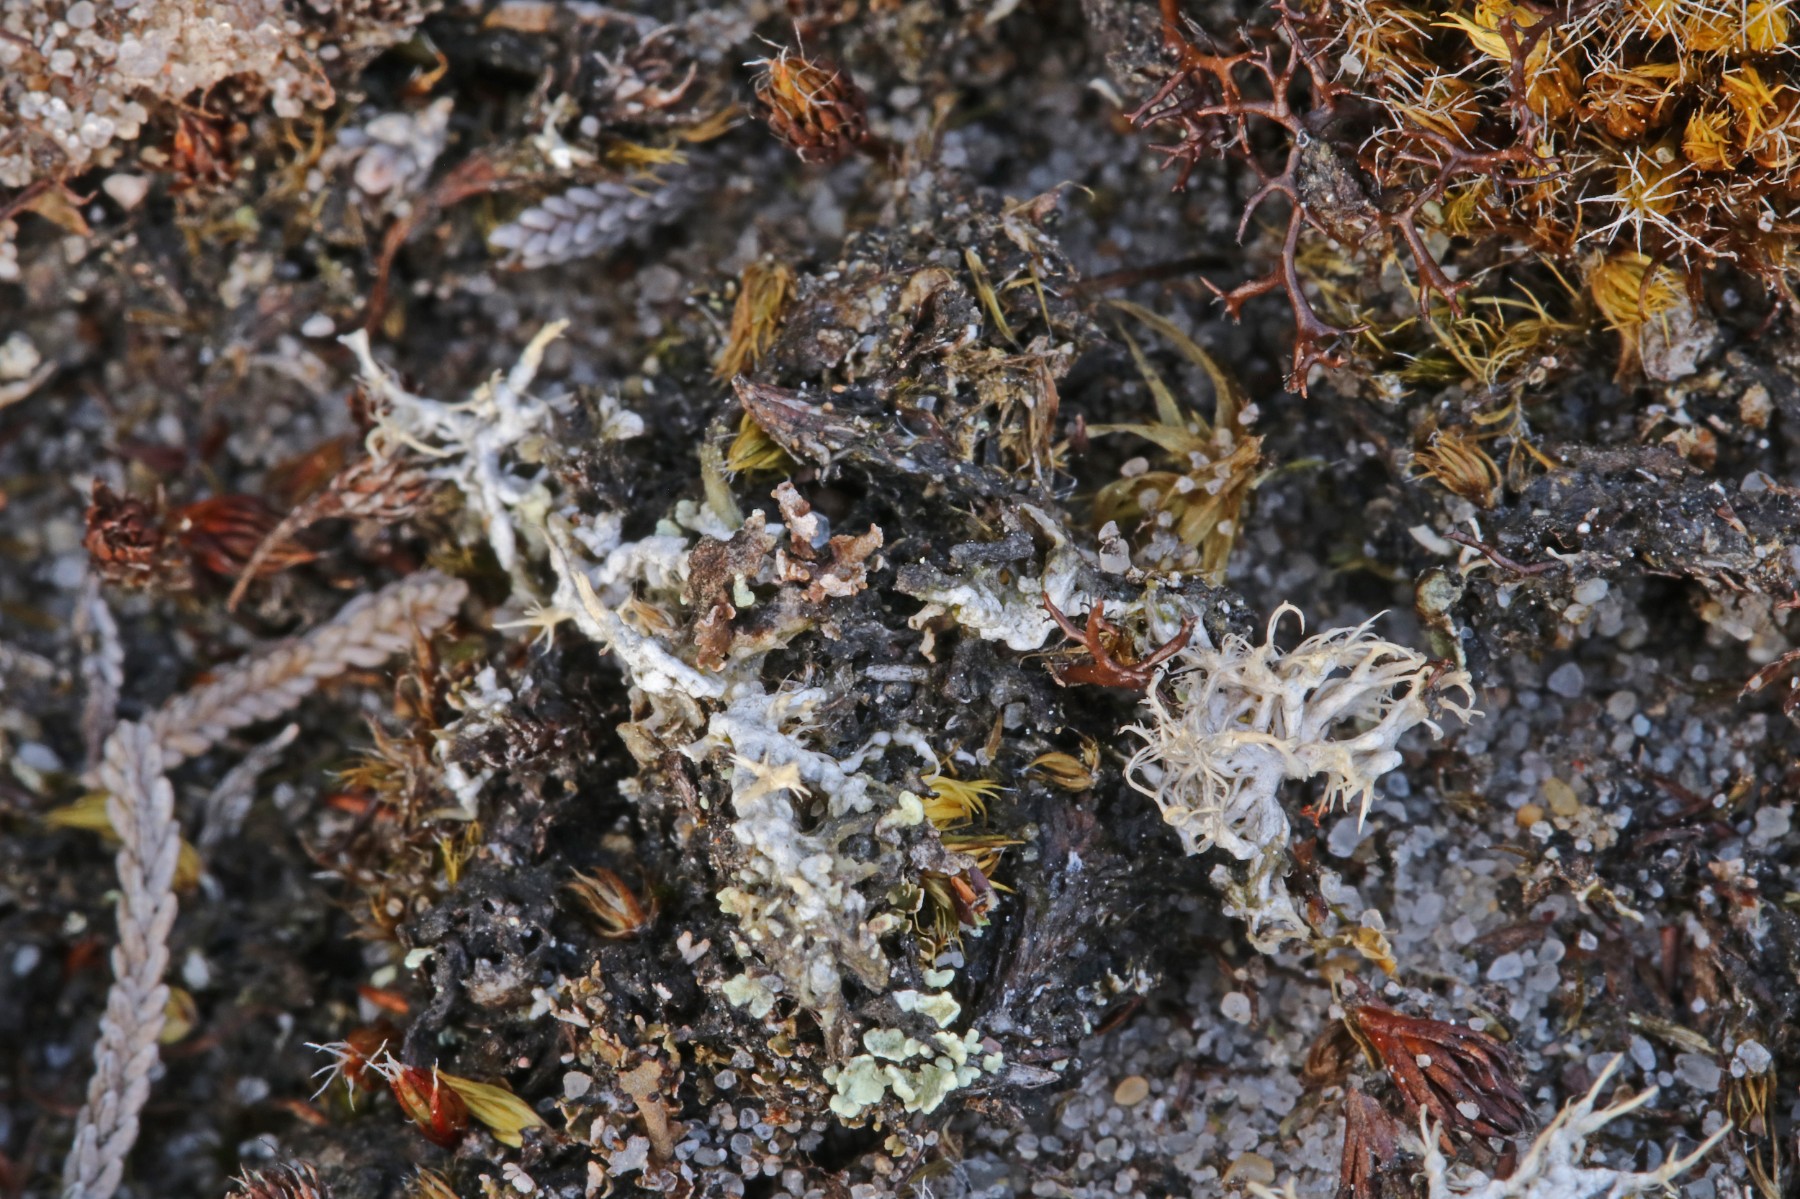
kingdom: Fungi
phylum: Ascomycota
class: Lecanoromycetes
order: Pertusariales
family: Ochrolechiaceae
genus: Ochrolechia
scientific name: Ochrolechia frigida
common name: fjeld-blegskivelav
